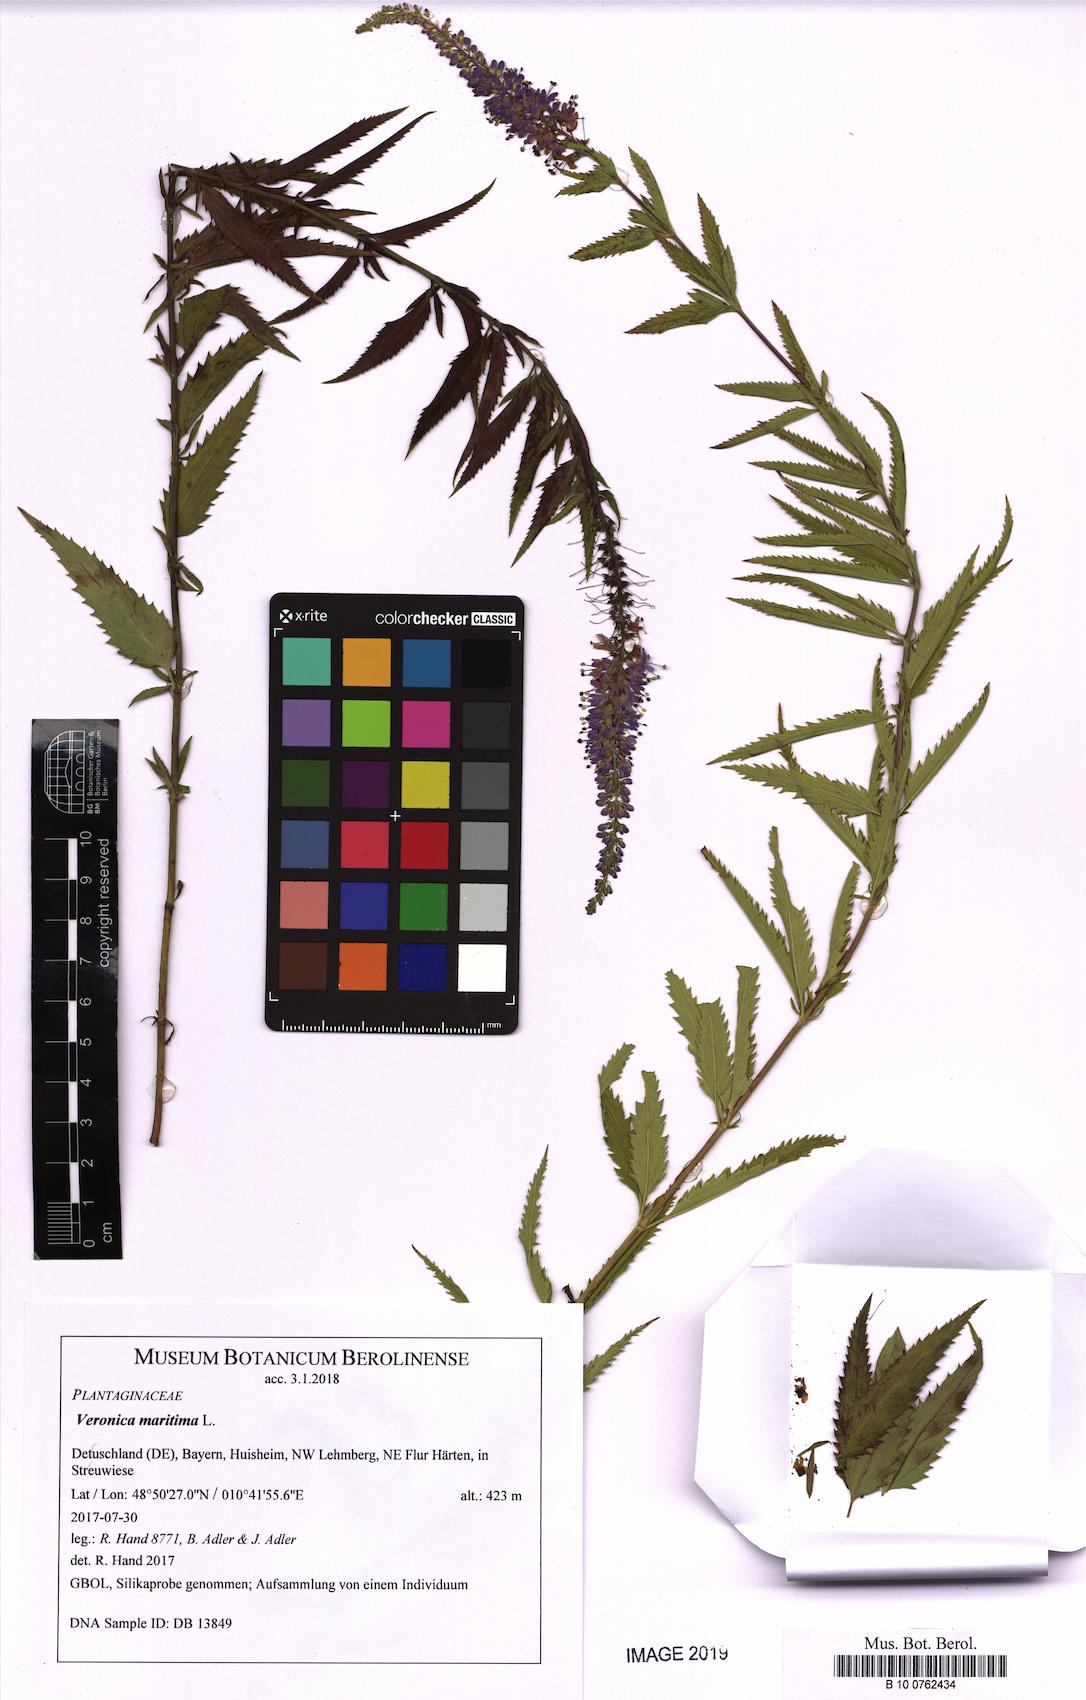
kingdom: Plantae
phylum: Tracheophyta
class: Magnoliopsida
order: Lamiales
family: Plantaginaceae
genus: Veronica
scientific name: Veronica maritima
